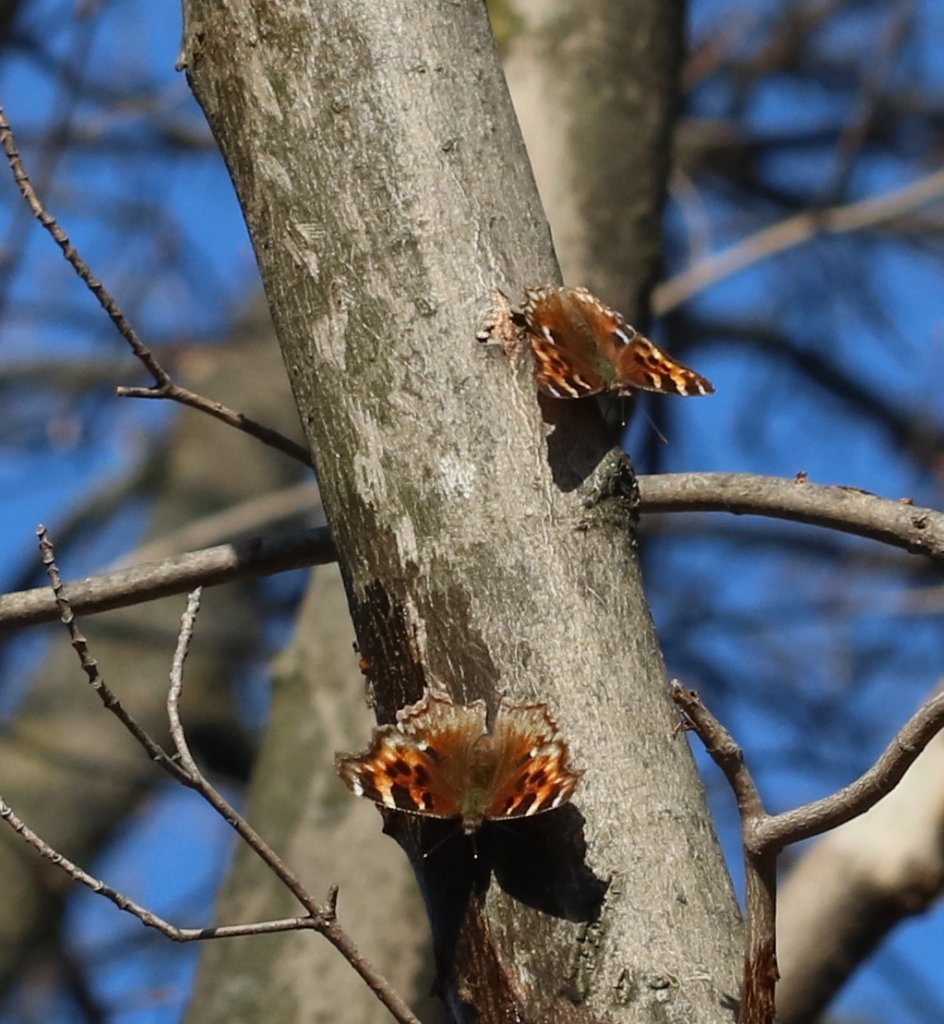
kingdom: Animalia
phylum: Arthropoda
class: Insecta
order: Lepidoptera
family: Nymphalidae
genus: Polygonia
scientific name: Polygonia vaualbum
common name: Compton Tortoiseshell
